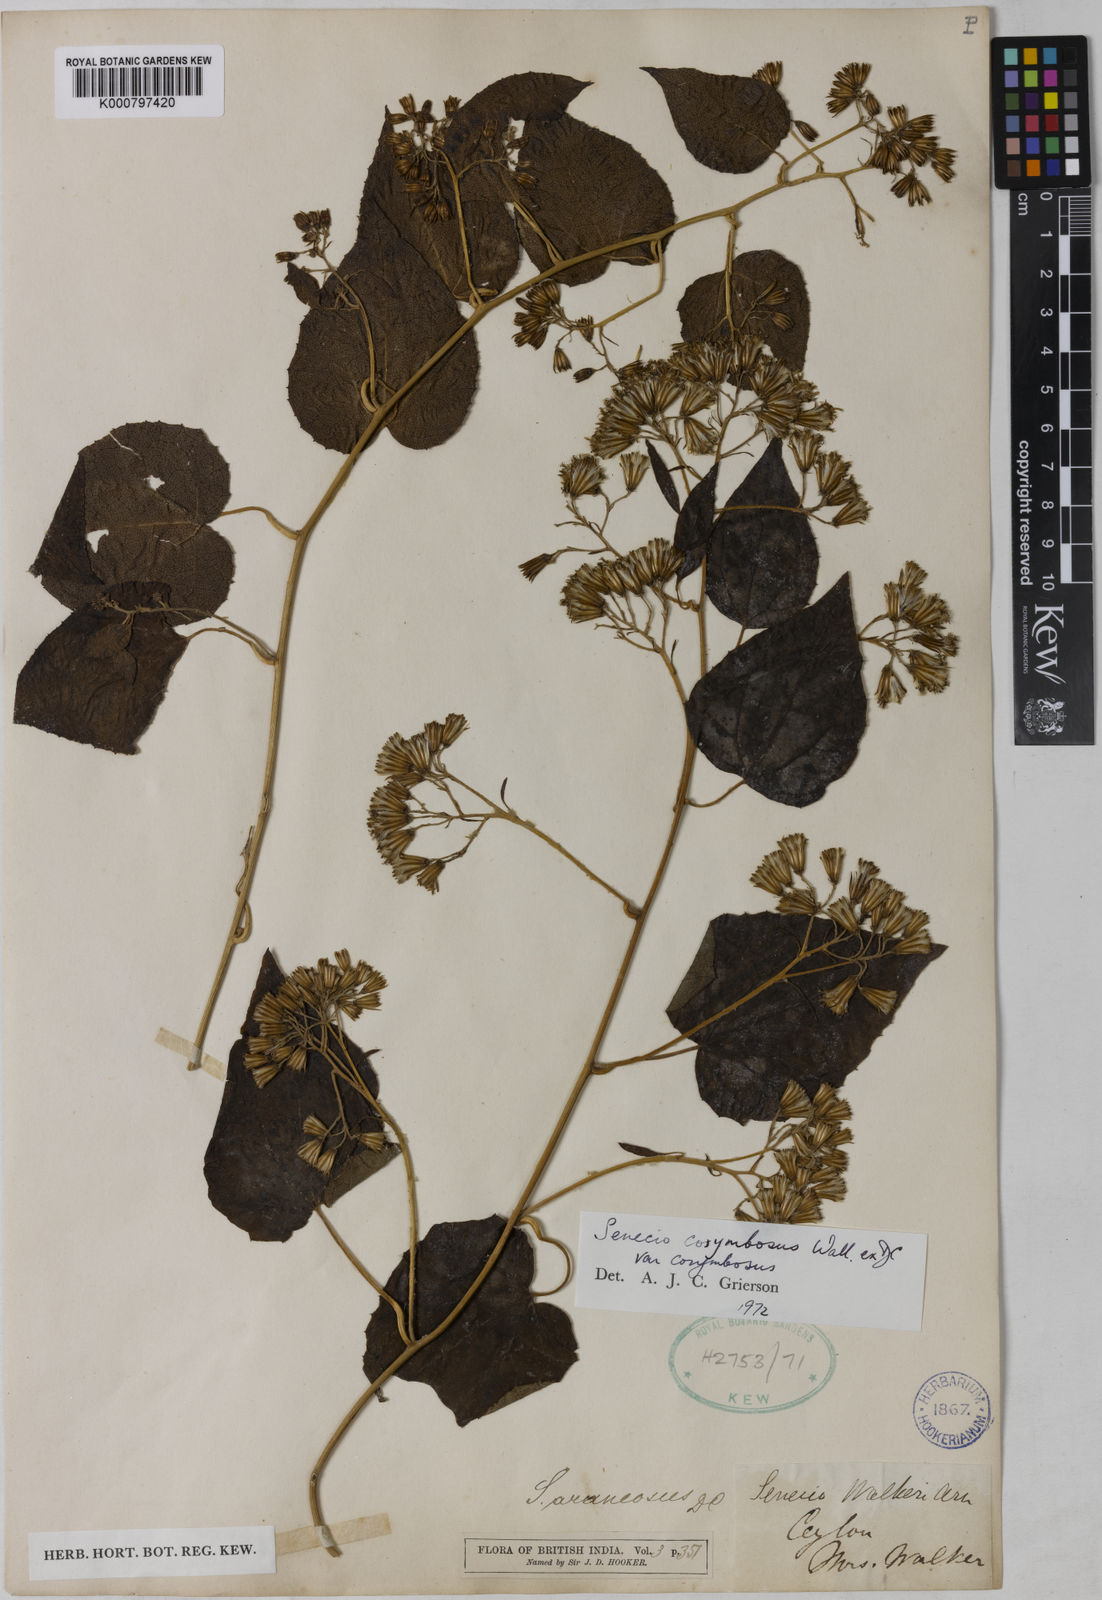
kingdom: Plantae
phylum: Tracheophyta
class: Magnoliopsida
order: Asterales
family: Asteraceae
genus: Cissampelopsis
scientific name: Cissampelopsis walkeri
